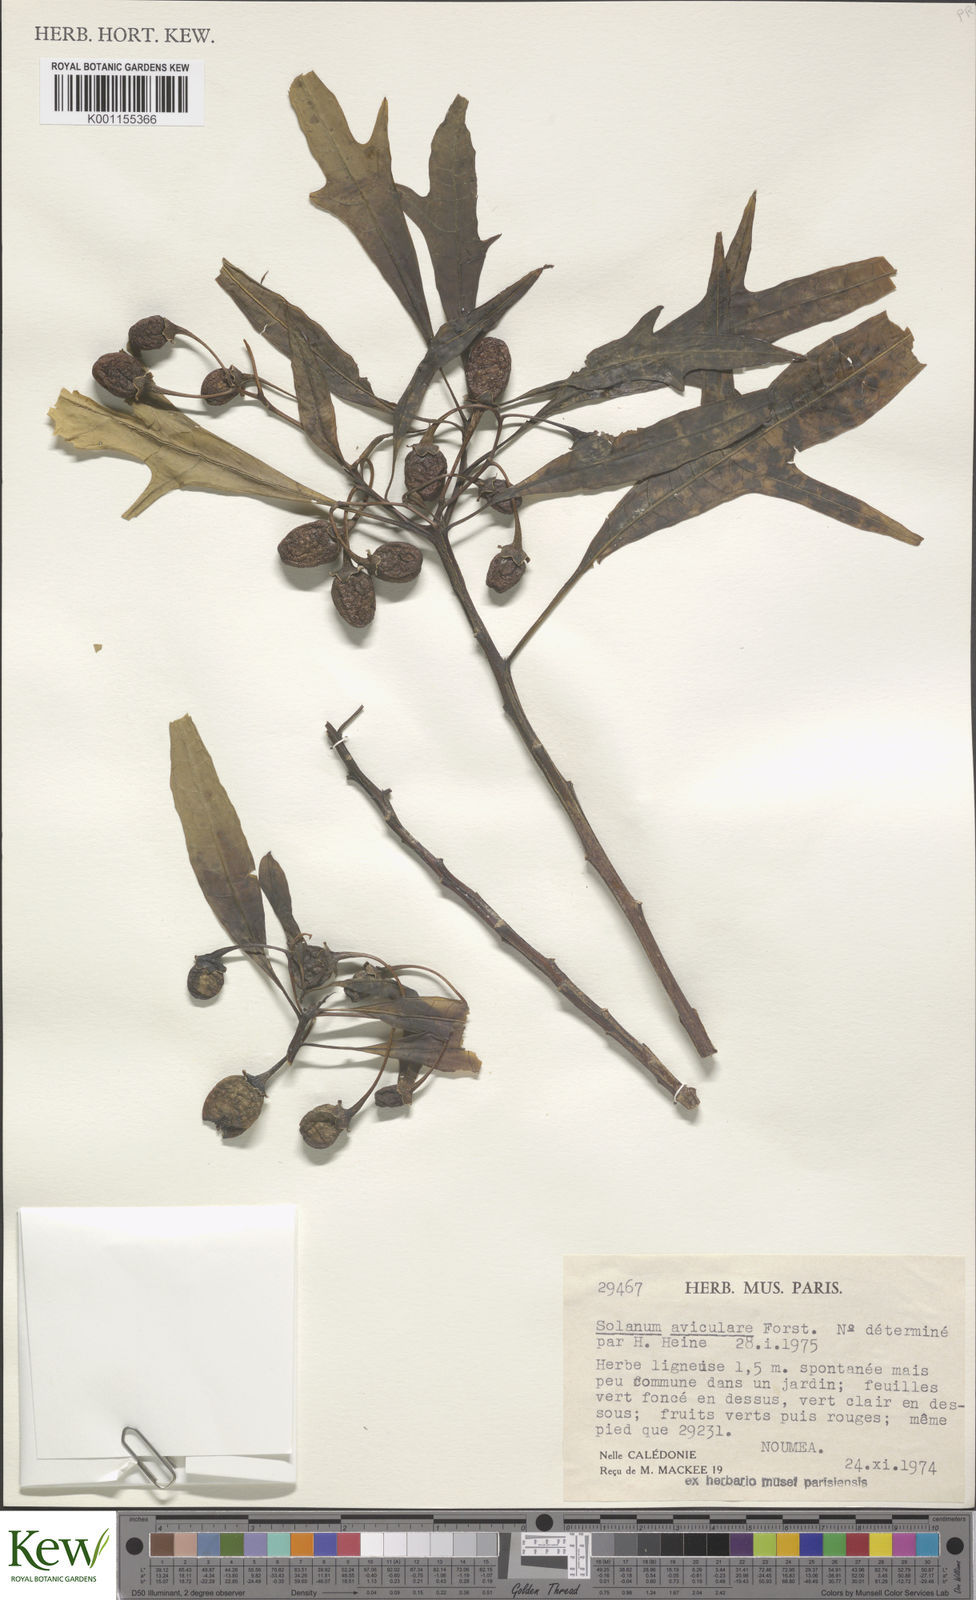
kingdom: Plantae
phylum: Tracheophyta
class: Magnoliopsida
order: Solanales
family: Solanaceae
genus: Solanum
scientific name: Solanum aviculare
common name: New zealand nightshade
